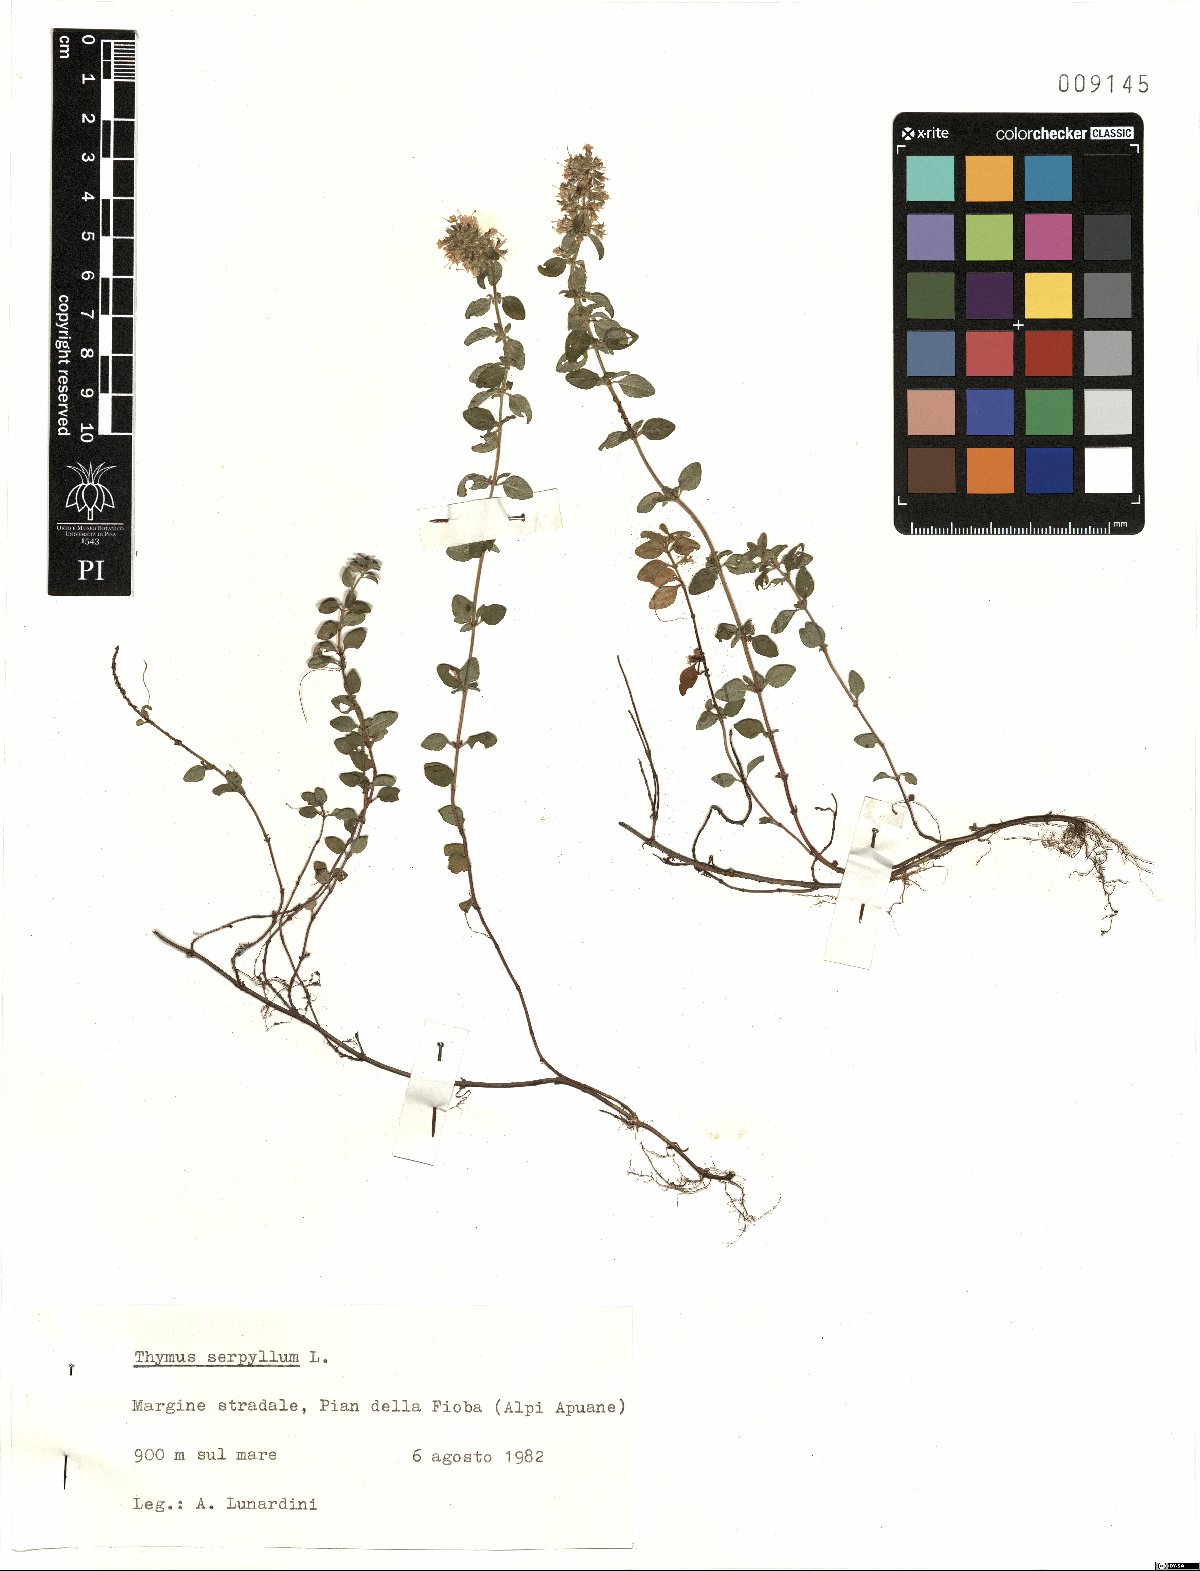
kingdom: Plantae
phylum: Tracheophyta
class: Magnoliopsida
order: Lamiales
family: Lamiaceae
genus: Thymus
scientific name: Thymus serpyllum
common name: Breckland thyme
